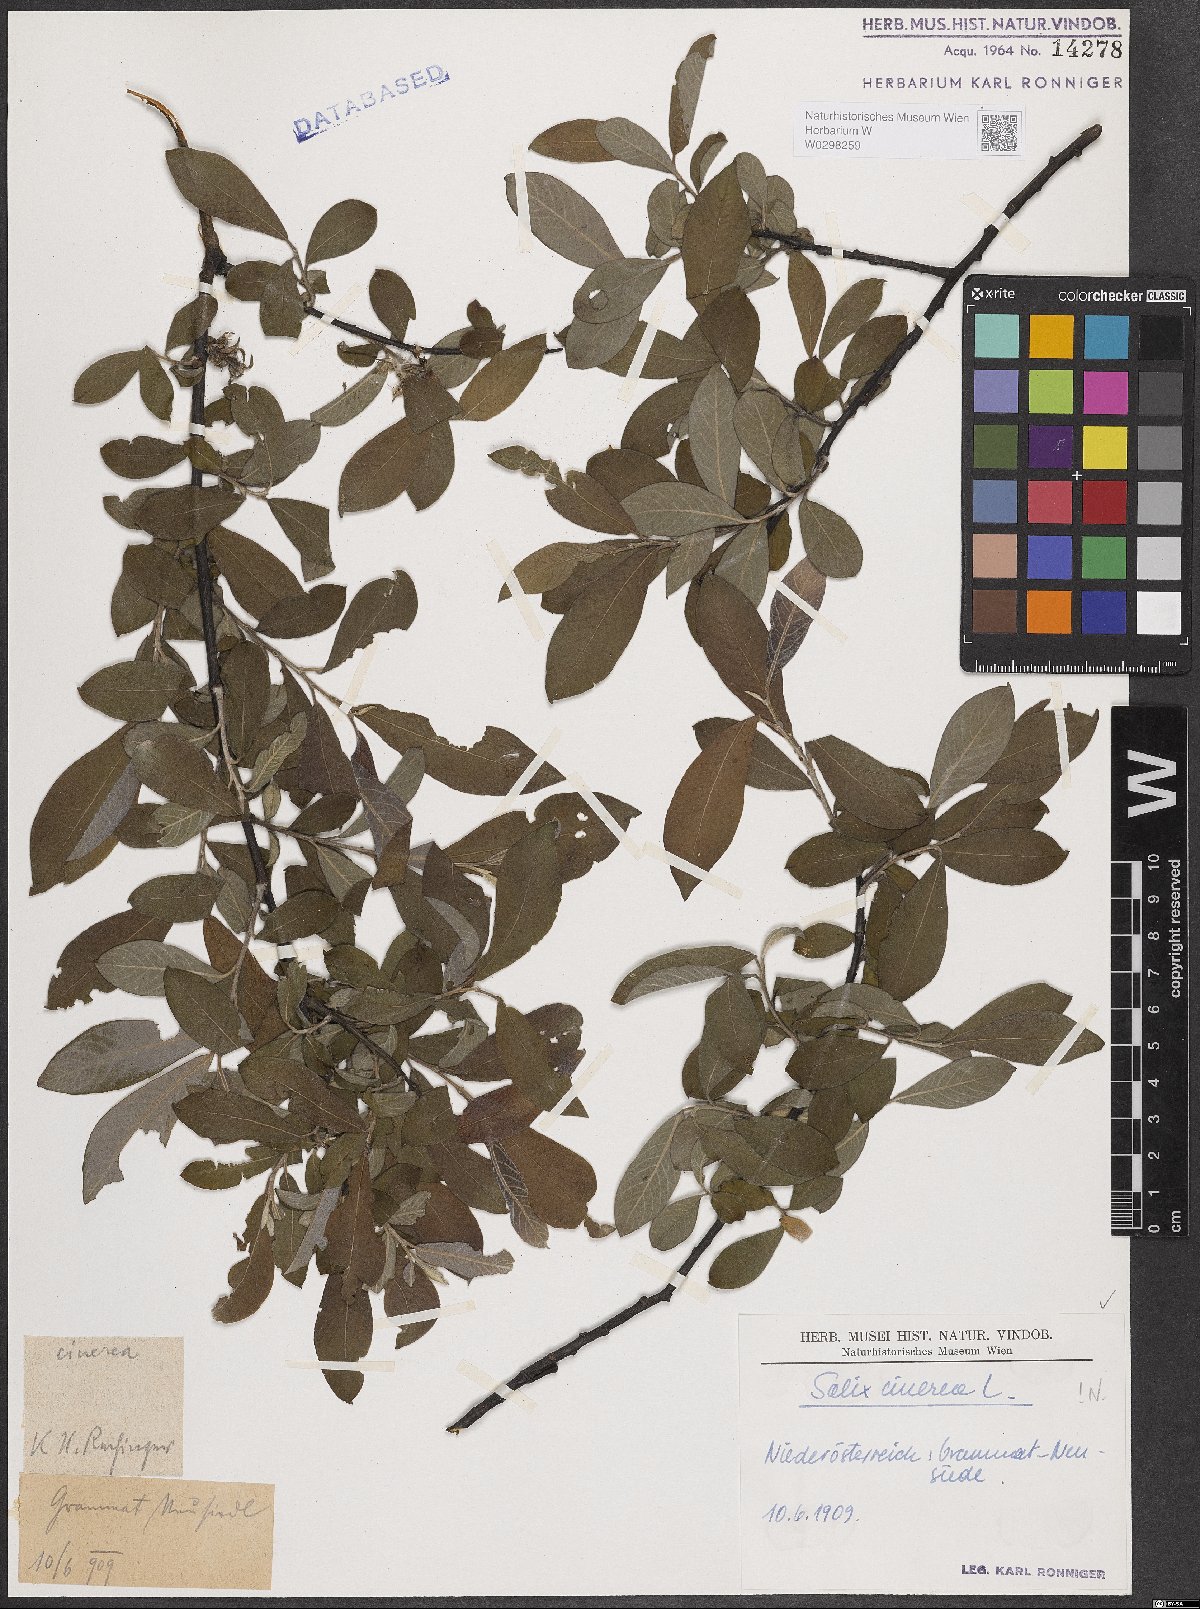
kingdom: Plantae
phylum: Tracheophyta
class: Magnoliopsida
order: Malpighiales
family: Salicaceae
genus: Salix
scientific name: Salix cinerea
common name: Common sallow
